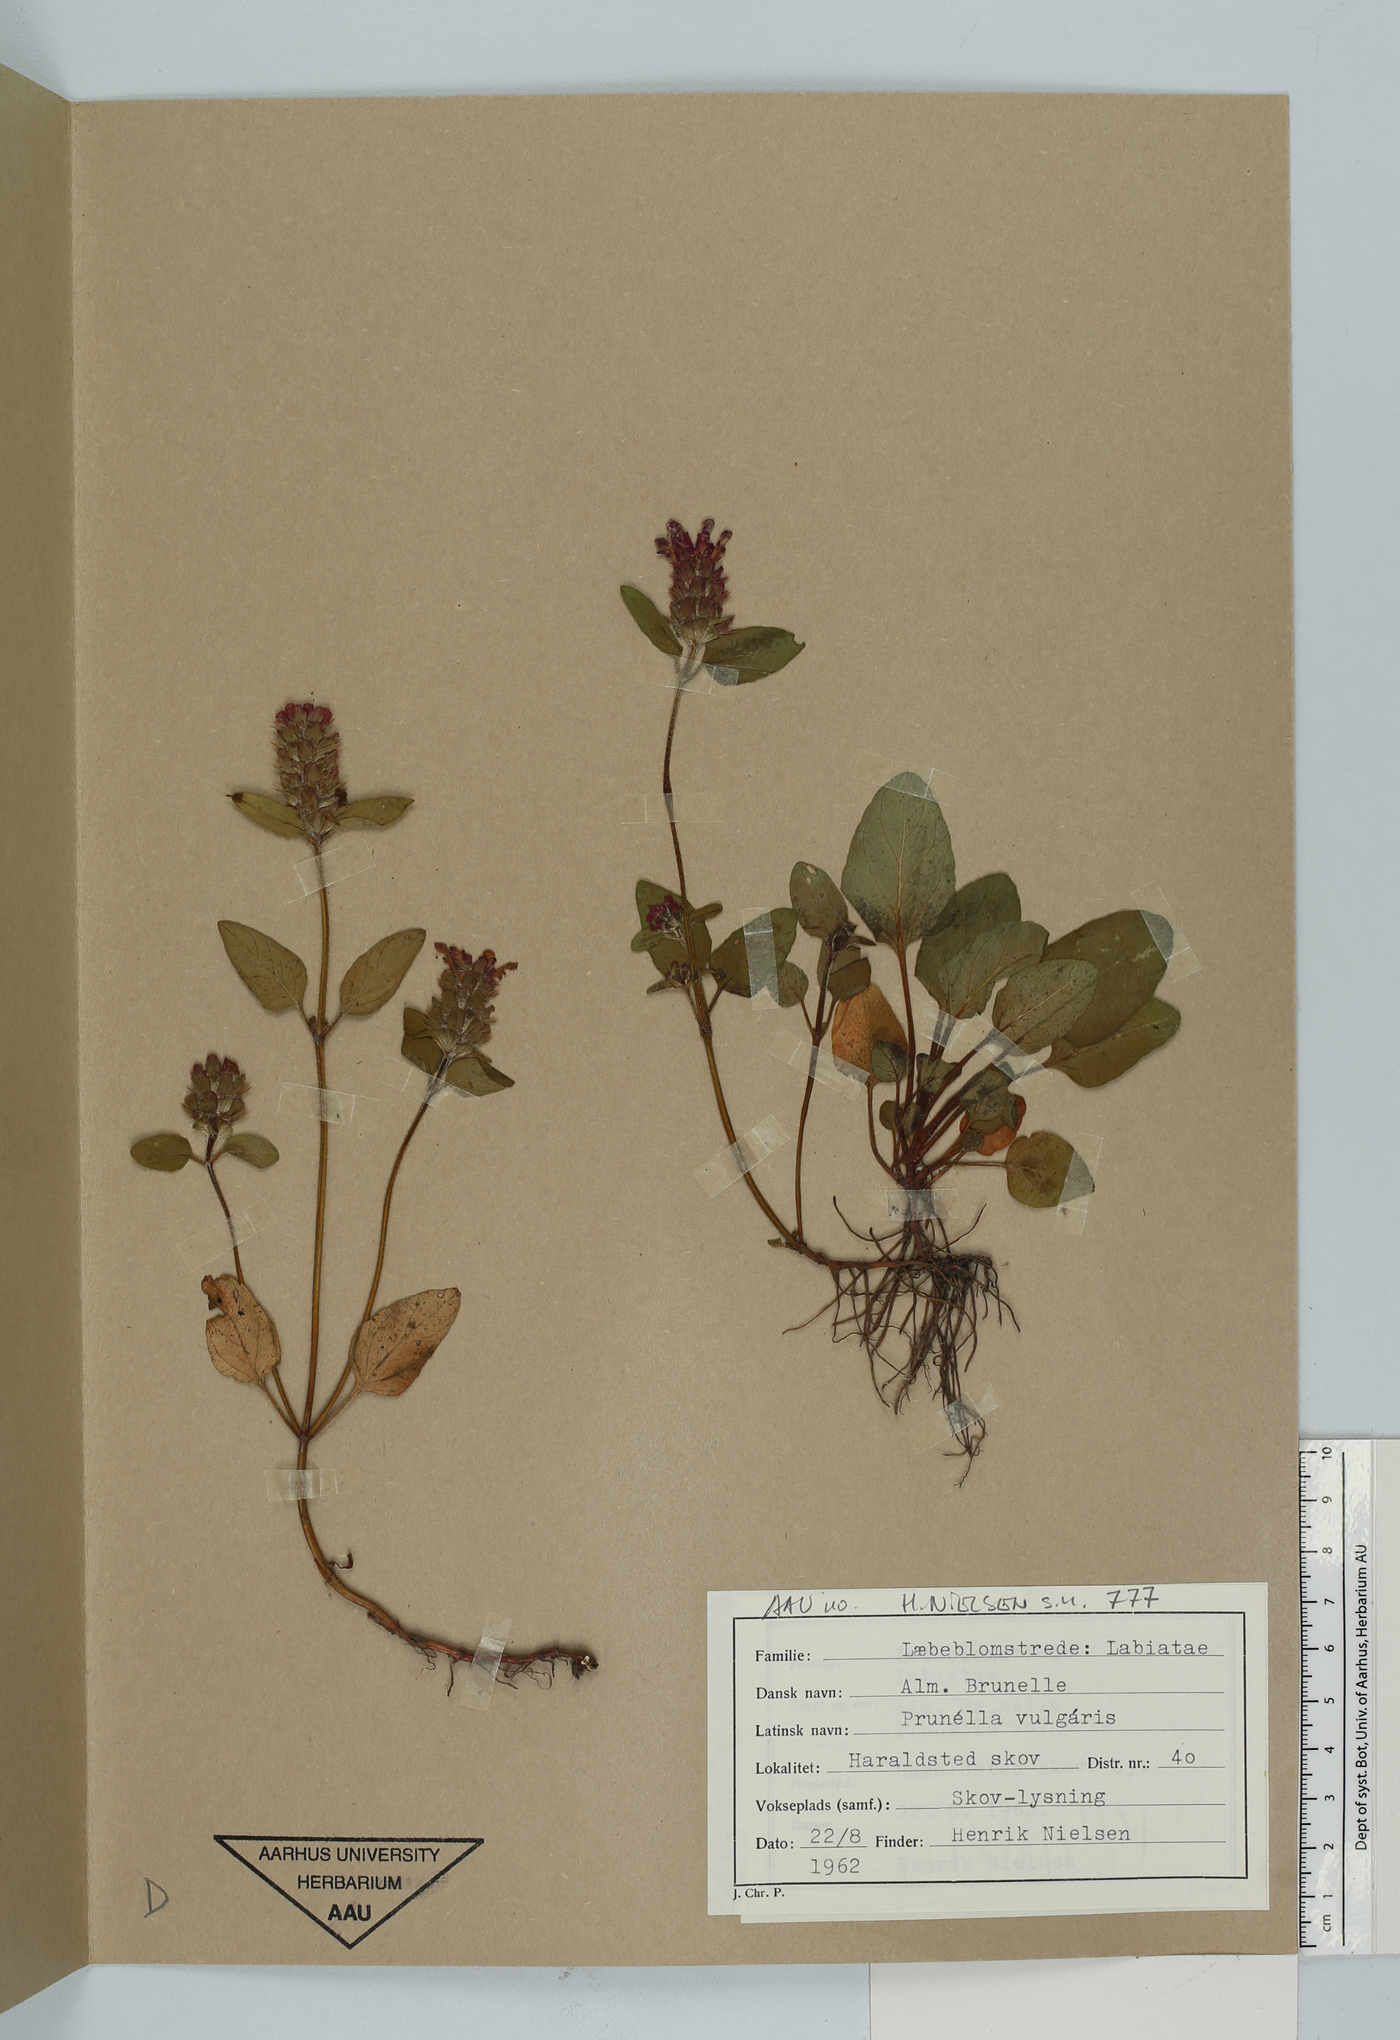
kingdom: Plantae
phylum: Tracheophyta
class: Magnoliopsida
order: Lamiales
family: Lamiaceae
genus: Prunella
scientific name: Prunella vulgaris
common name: Heal-all
